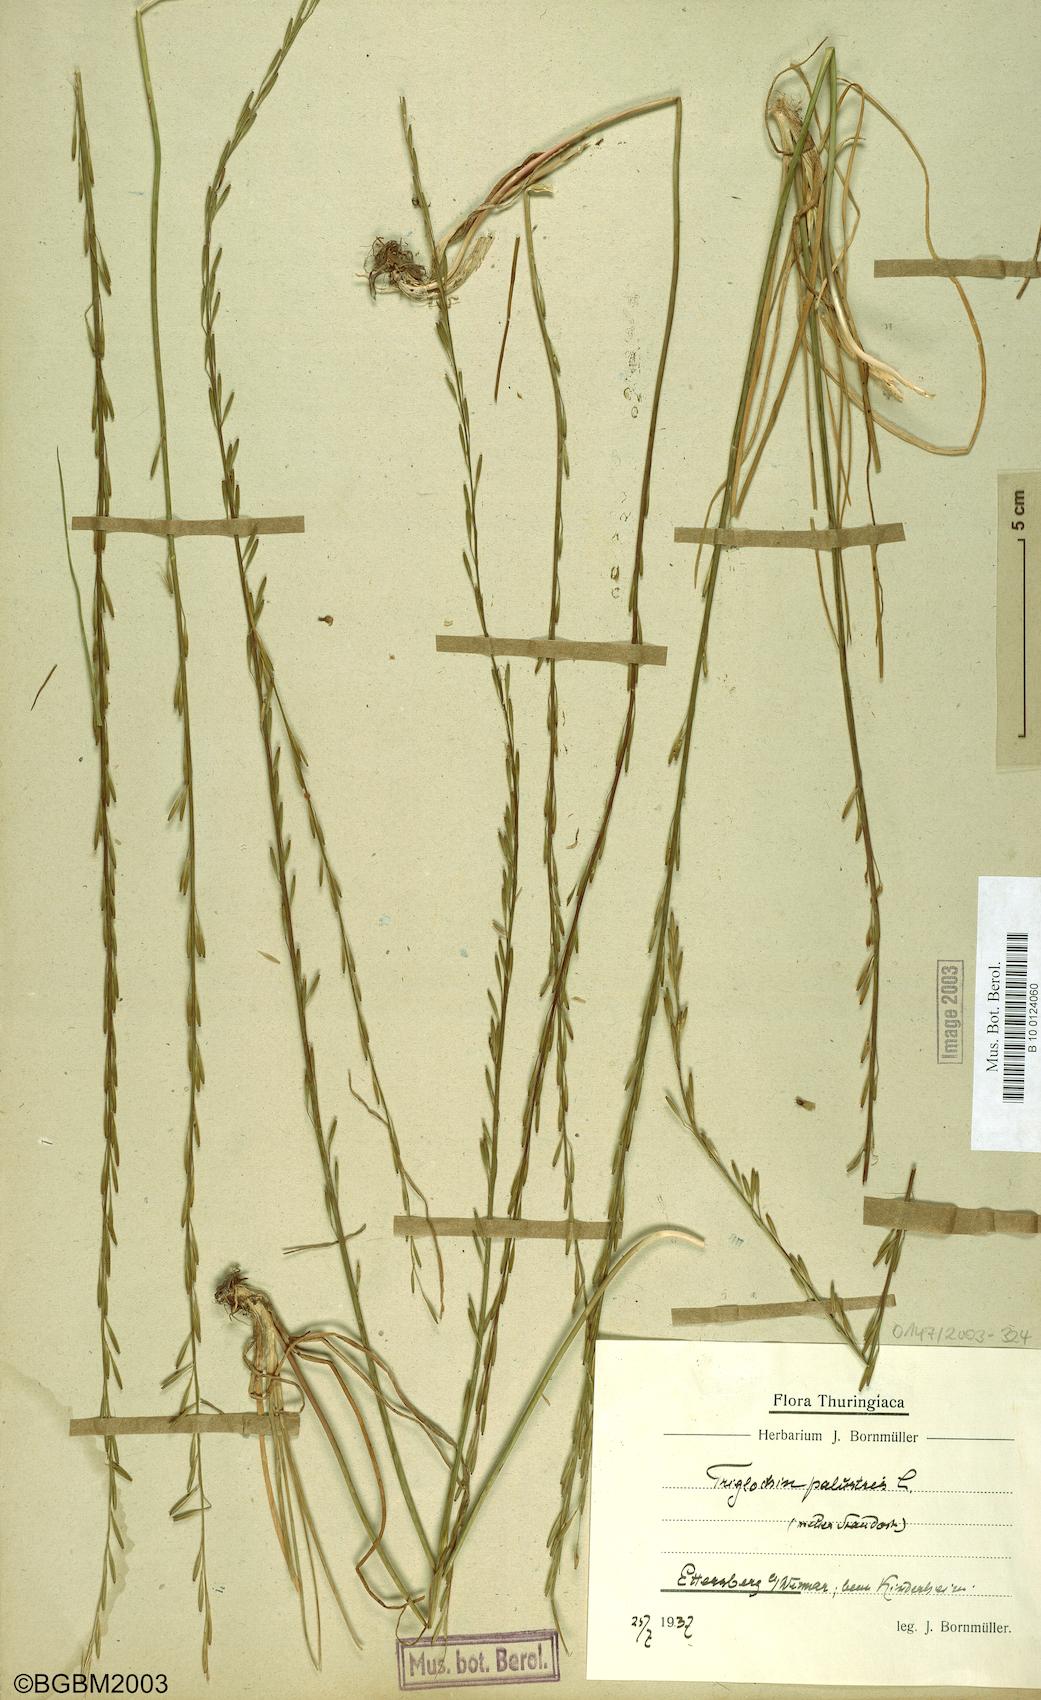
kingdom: Plantae
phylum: Tracheophyta
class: Liliopsida
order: Alismatales
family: Juncaginaceae
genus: Triglochin
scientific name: Triglochin palustris
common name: Marsh arrowgrass
